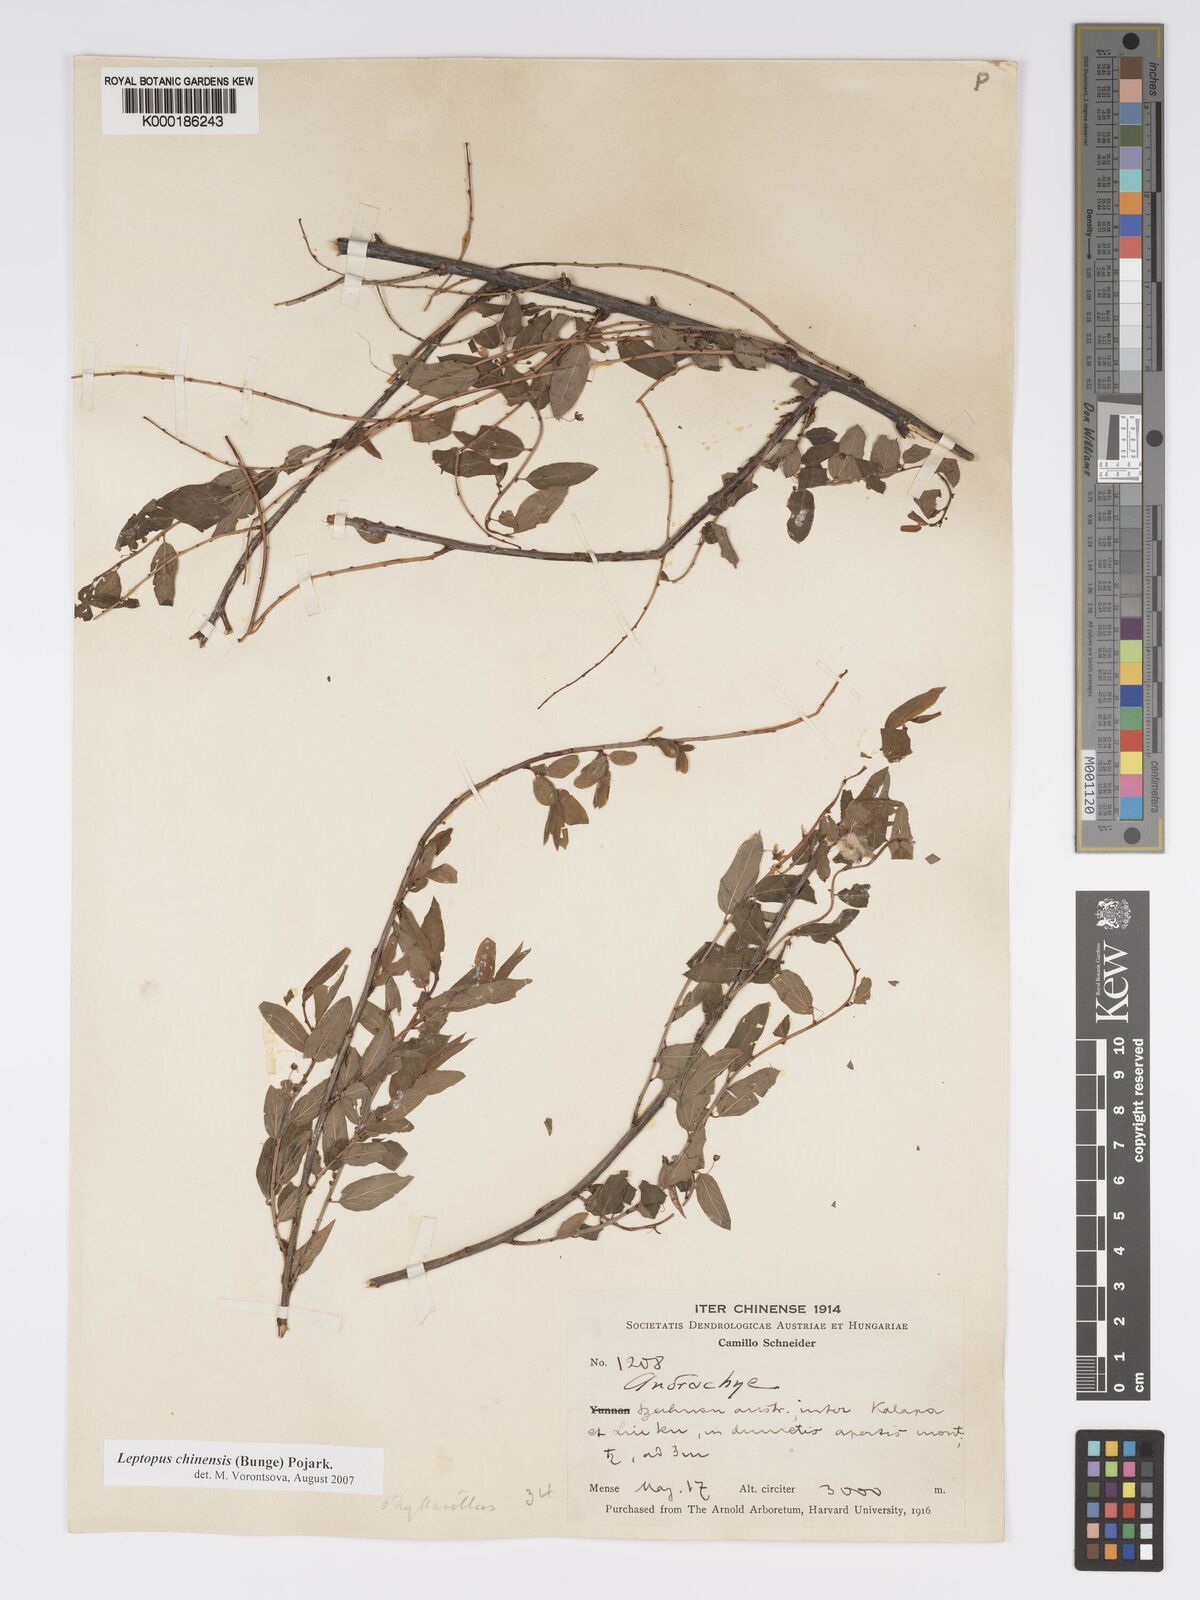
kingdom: Plantae
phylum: Tracheophyta
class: Magnoliopsida
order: Malpighiales
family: Phyllanthaceae
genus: Leptopus
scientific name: Leptopus chinensis
